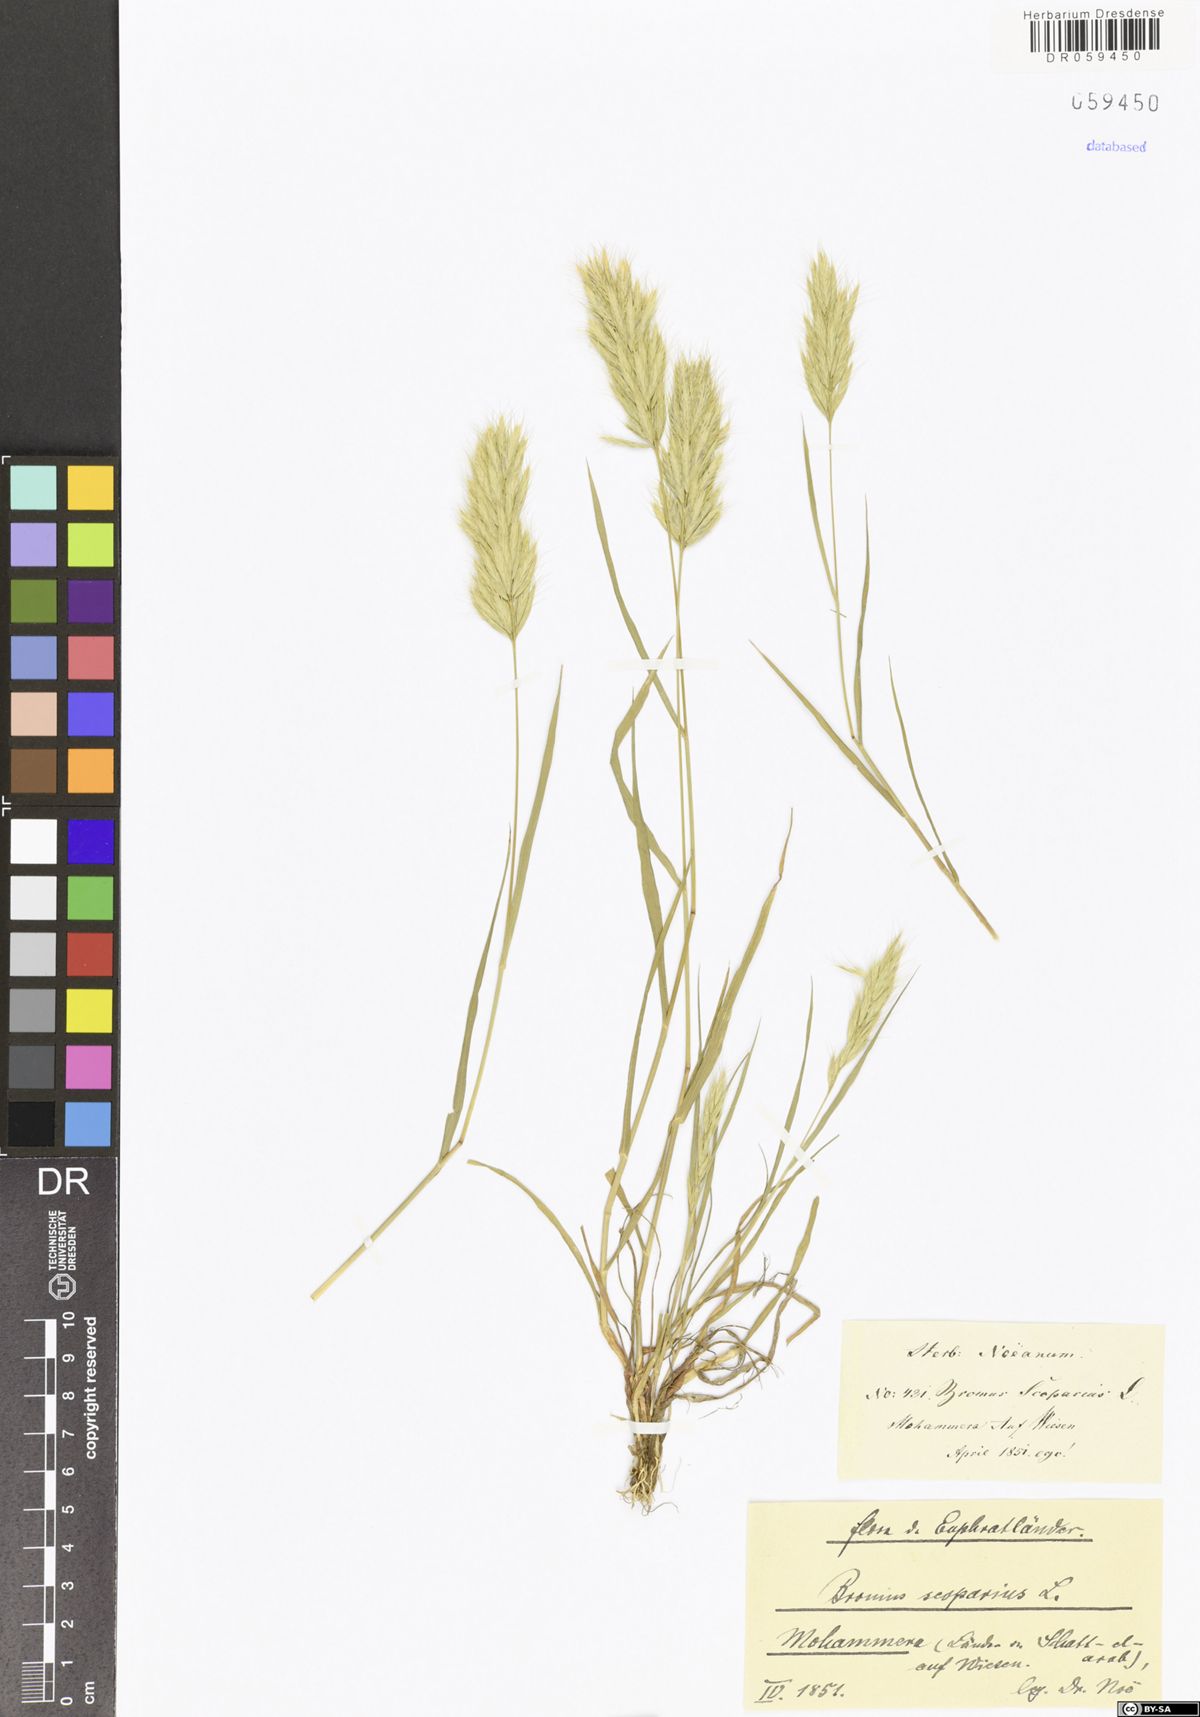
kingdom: Plantae
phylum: Tracheophyta
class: Liliopsida
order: Poales
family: Poaceae
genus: Bromus
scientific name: Bromus scoparius
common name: Broom brome
